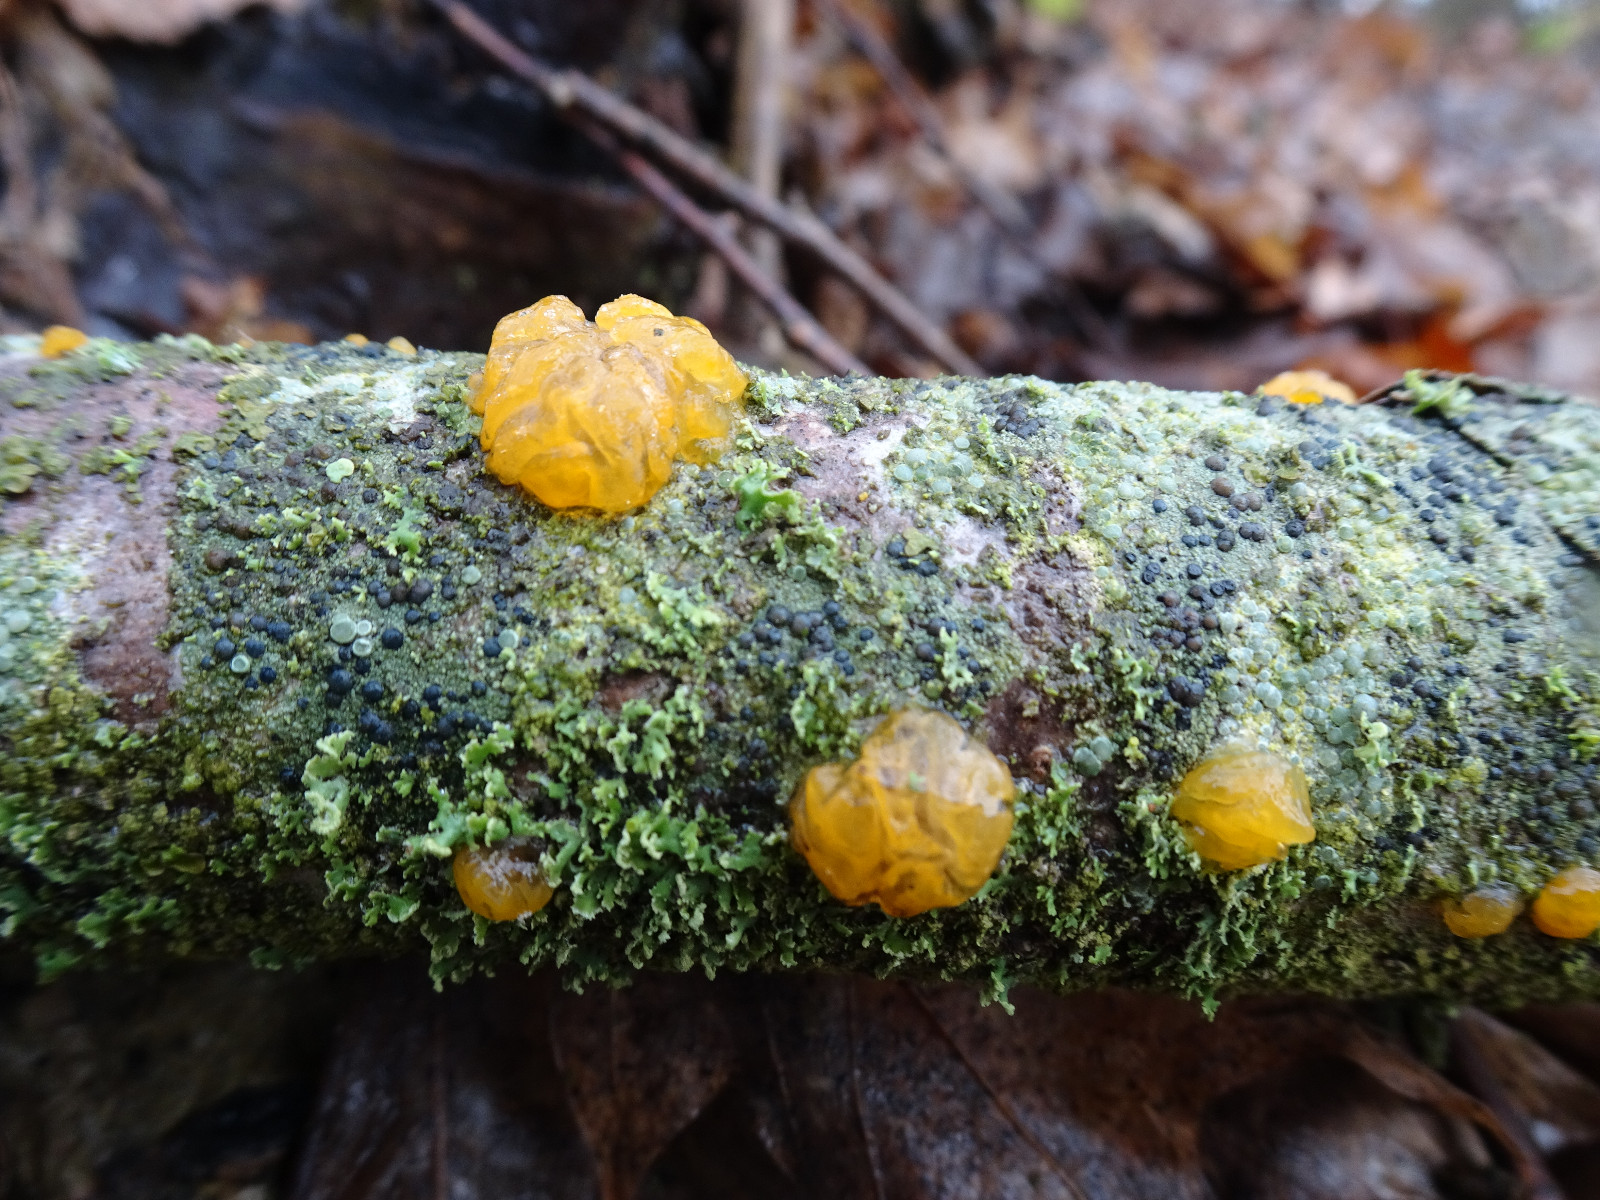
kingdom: Fungi
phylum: Basidiomycota
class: Dacrymycetes
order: Dacrymycetales
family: Dacrymycetaceae
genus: Dacrymyces
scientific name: Dacrymyces lacrymalis
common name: rynket tåresvamp
